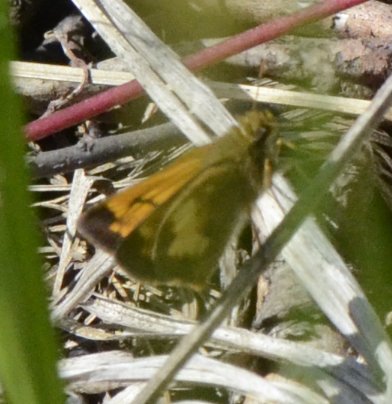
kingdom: Animalia
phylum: Arthropoda
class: Insecta
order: Lepidoptera
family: Hesperiidae
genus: Lon
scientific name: Lon hobomok
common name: Hobomok Skipper
